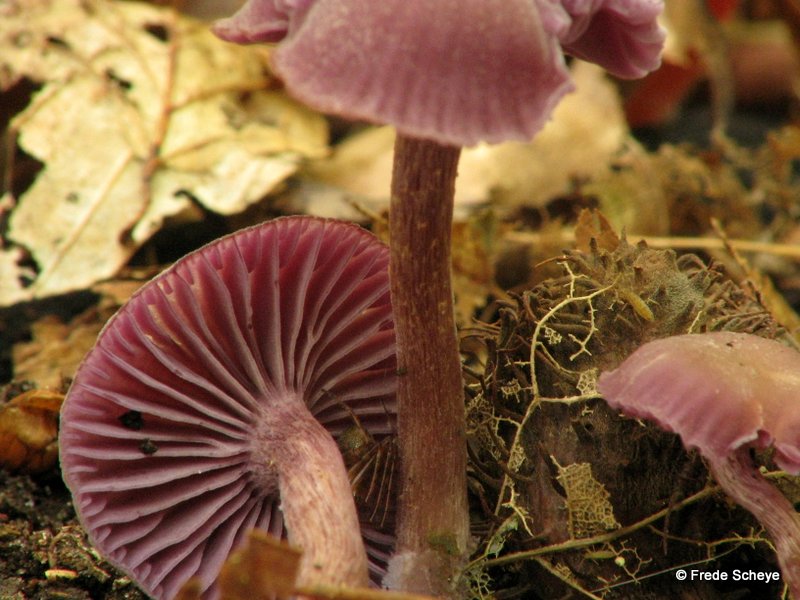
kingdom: Fungi
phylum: Basidiomycota
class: Agaricomycetes
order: Agaricales
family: Hydnangiaceae
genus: Laccaria
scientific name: Laccaria amethystina
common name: violet ametysthat
